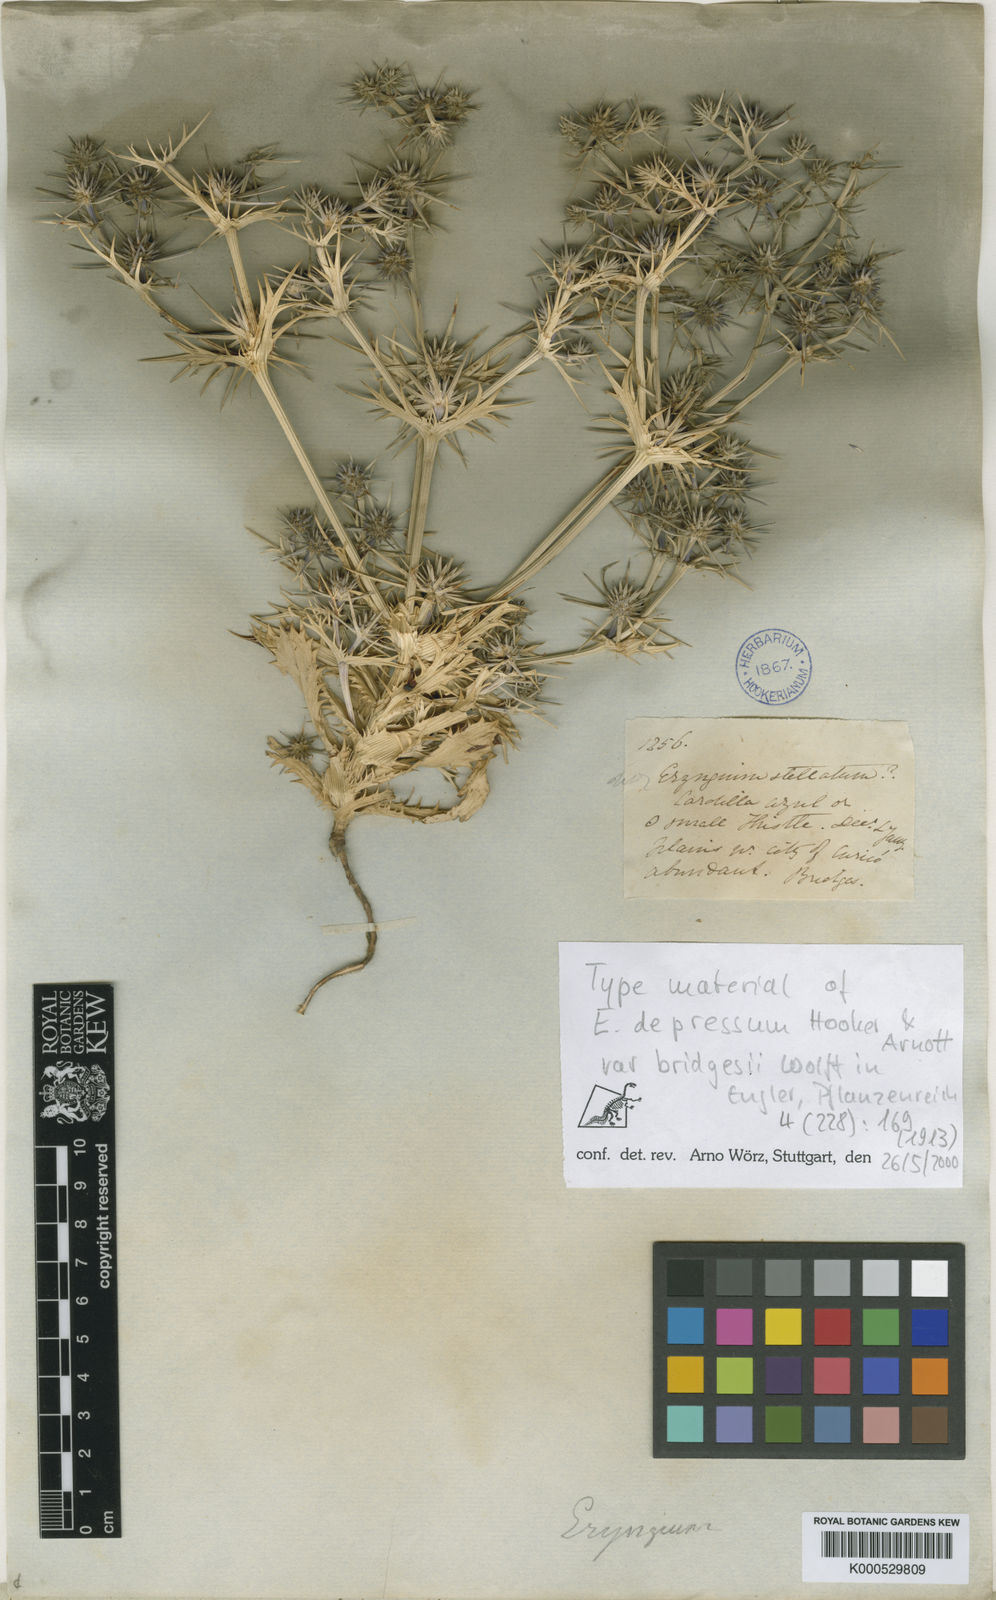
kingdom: Plantae
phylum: Tracheophyta
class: Magnoliopsida
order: Apiales
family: Apiaceae
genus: Eryngium
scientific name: Eryngium depressum
